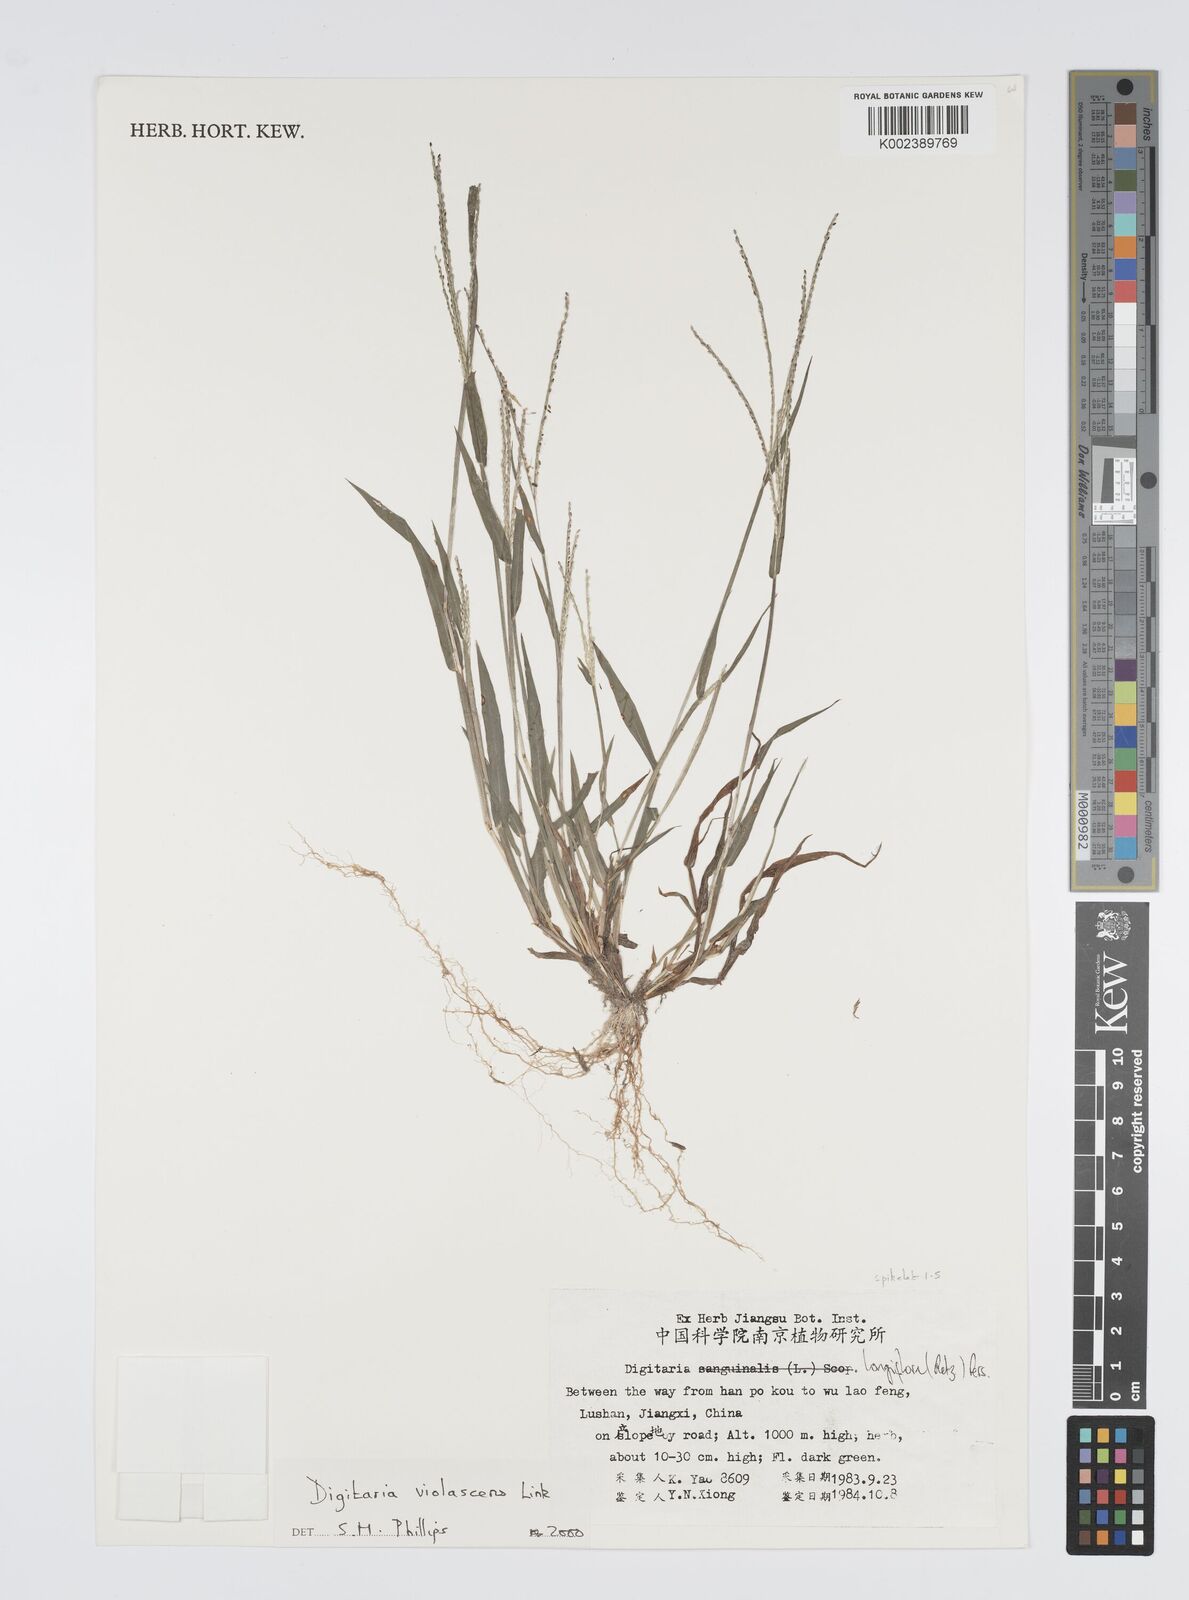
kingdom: Plantae
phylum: Tracheophyta
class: Liliopsida
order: Poales
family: Poaceae
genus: Digitaria
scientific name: Digitaria violascens
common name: Violet crabgrass
